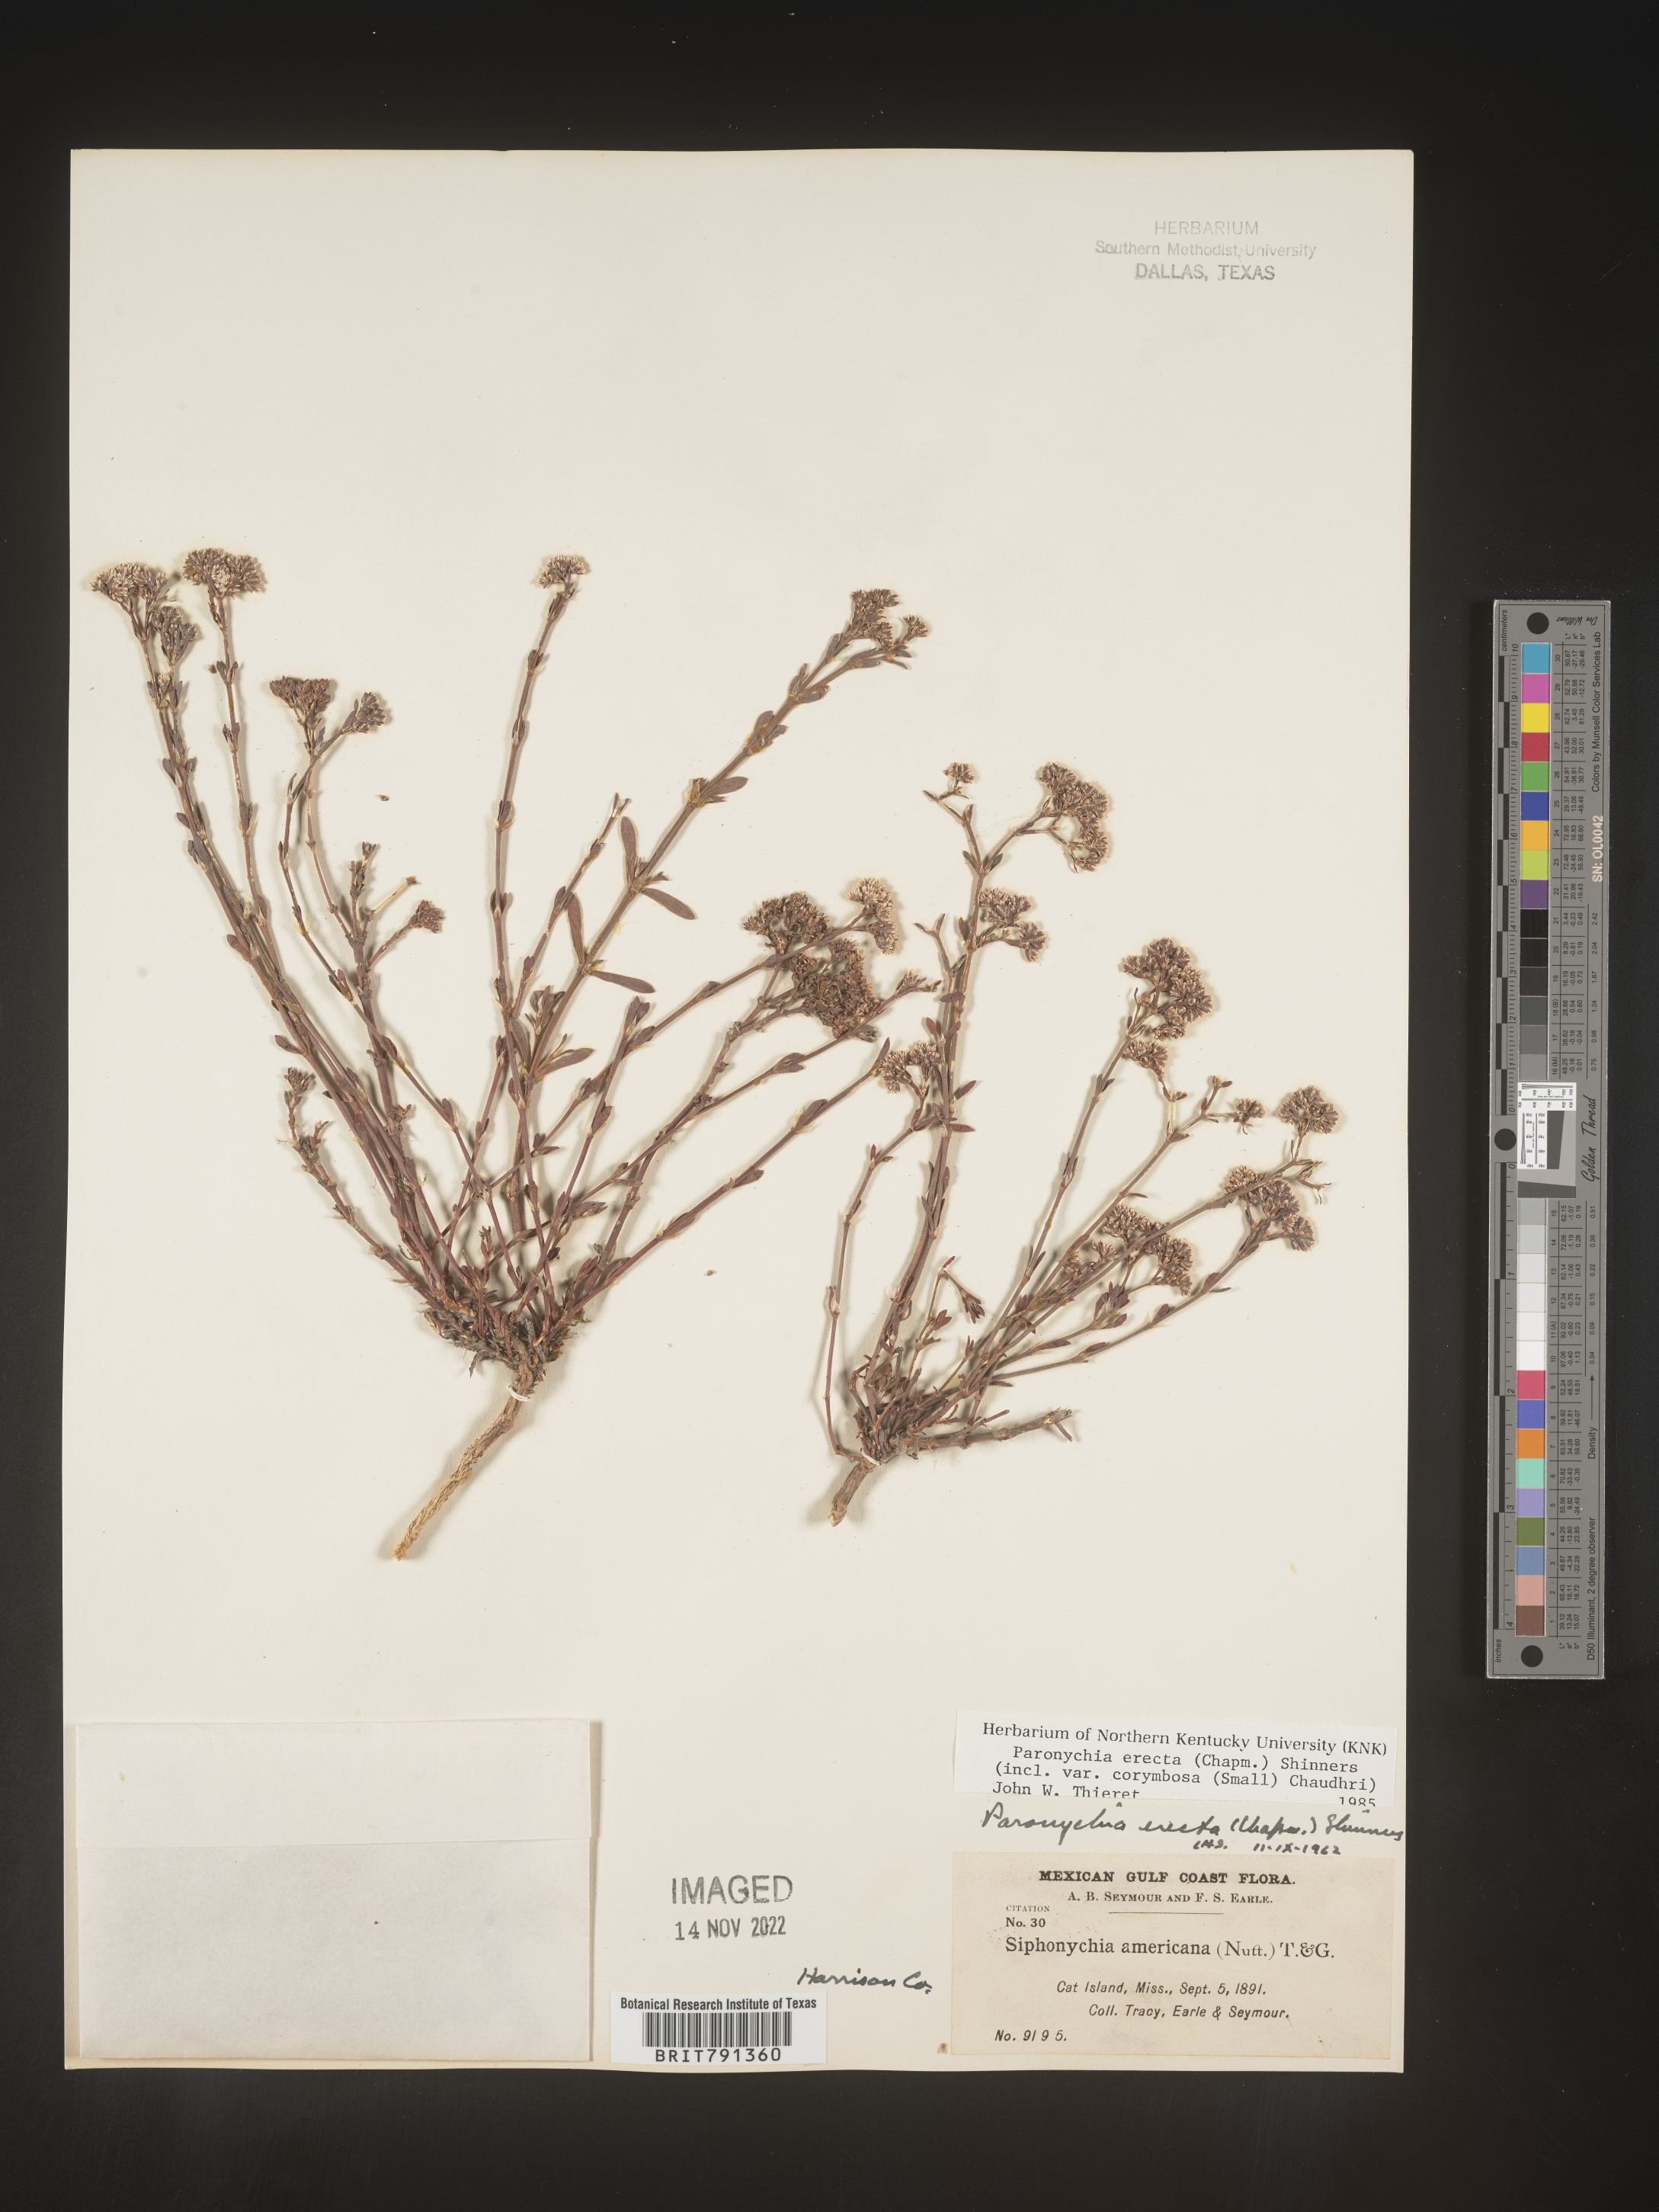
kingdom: Plantae
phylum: Tracheophyta
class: Magnoliopsida
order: Caryophyllales
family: Caryophyllaceae
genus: Paronychia
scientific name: Paronychia erecta
